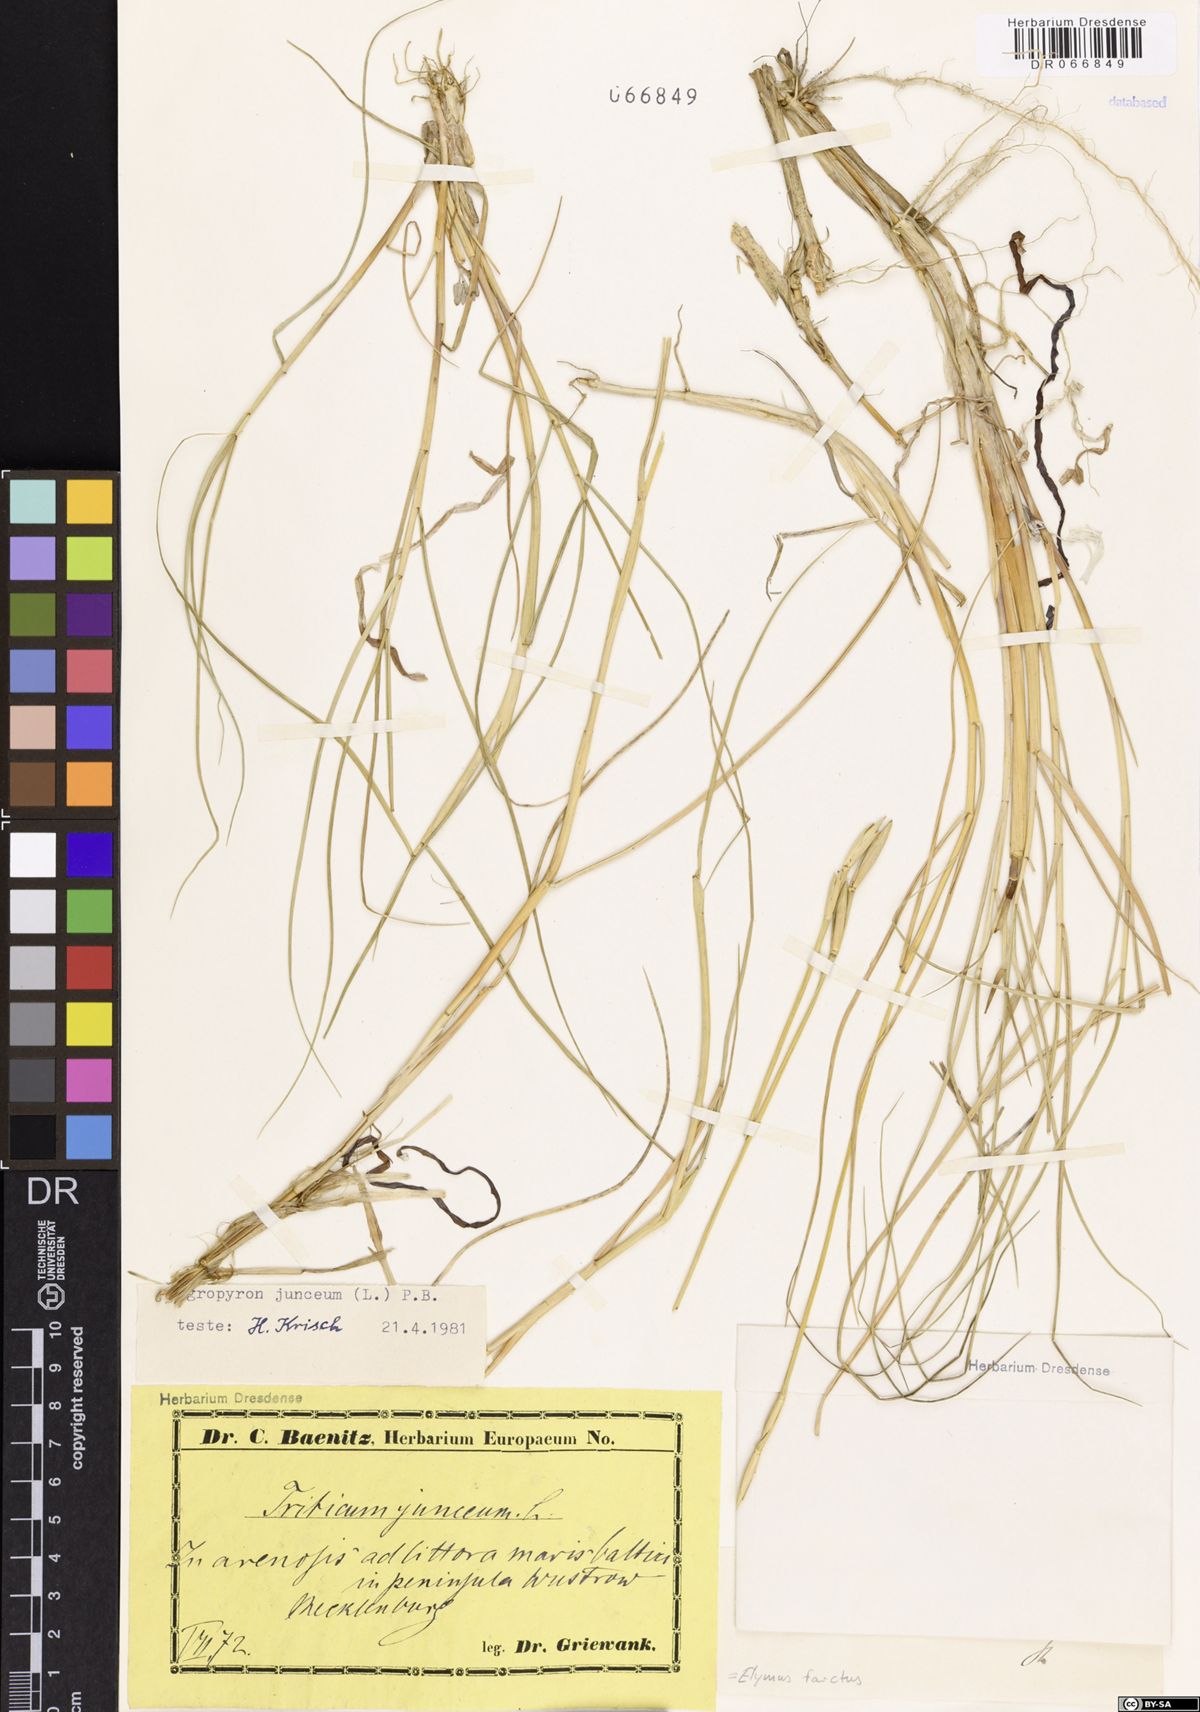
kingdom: Plantae
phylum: Tracheophyta
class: Liliopsida
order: Poales
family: Poaceae
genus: Thinopyrum
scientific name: Thinopyrum junceum
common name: Russian wheatgrass
